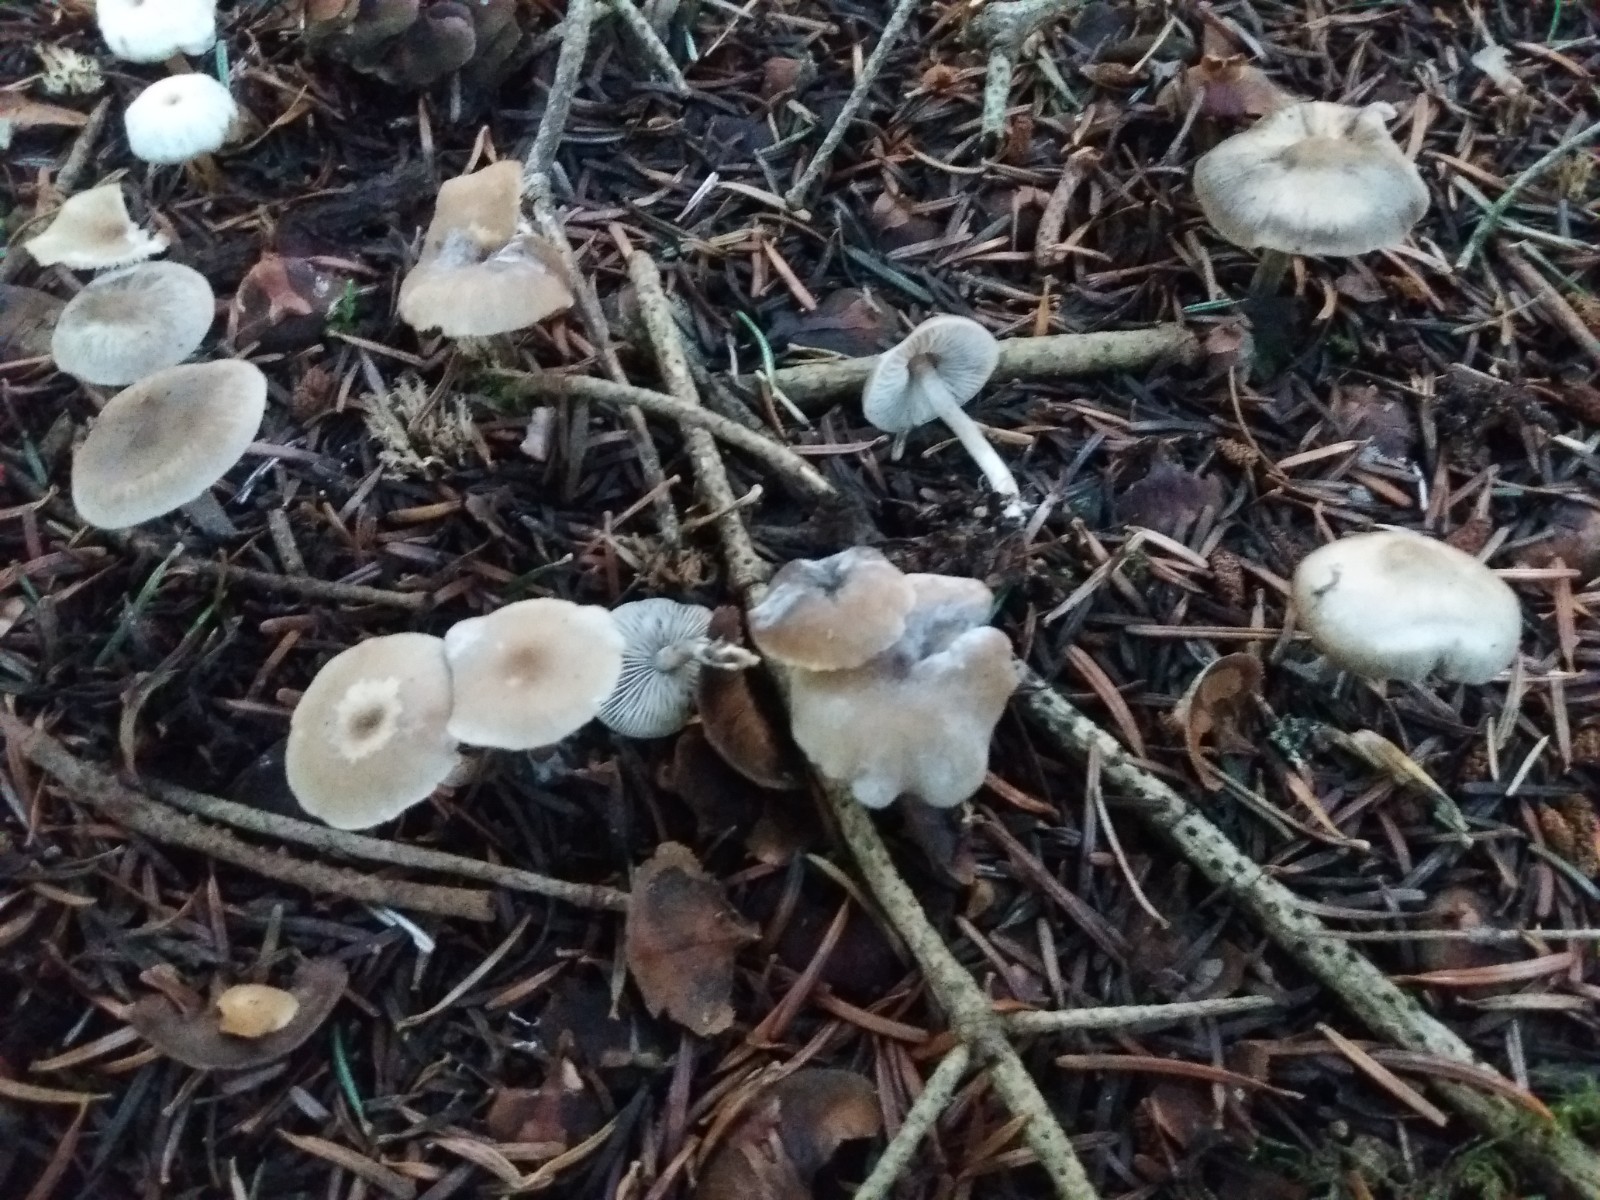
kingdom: Fungi
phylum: Basidiomycota
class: Agaricomycetes
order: Agaricales
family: Tricholomataceae
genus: Clitocybe
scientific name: Clitocybe
